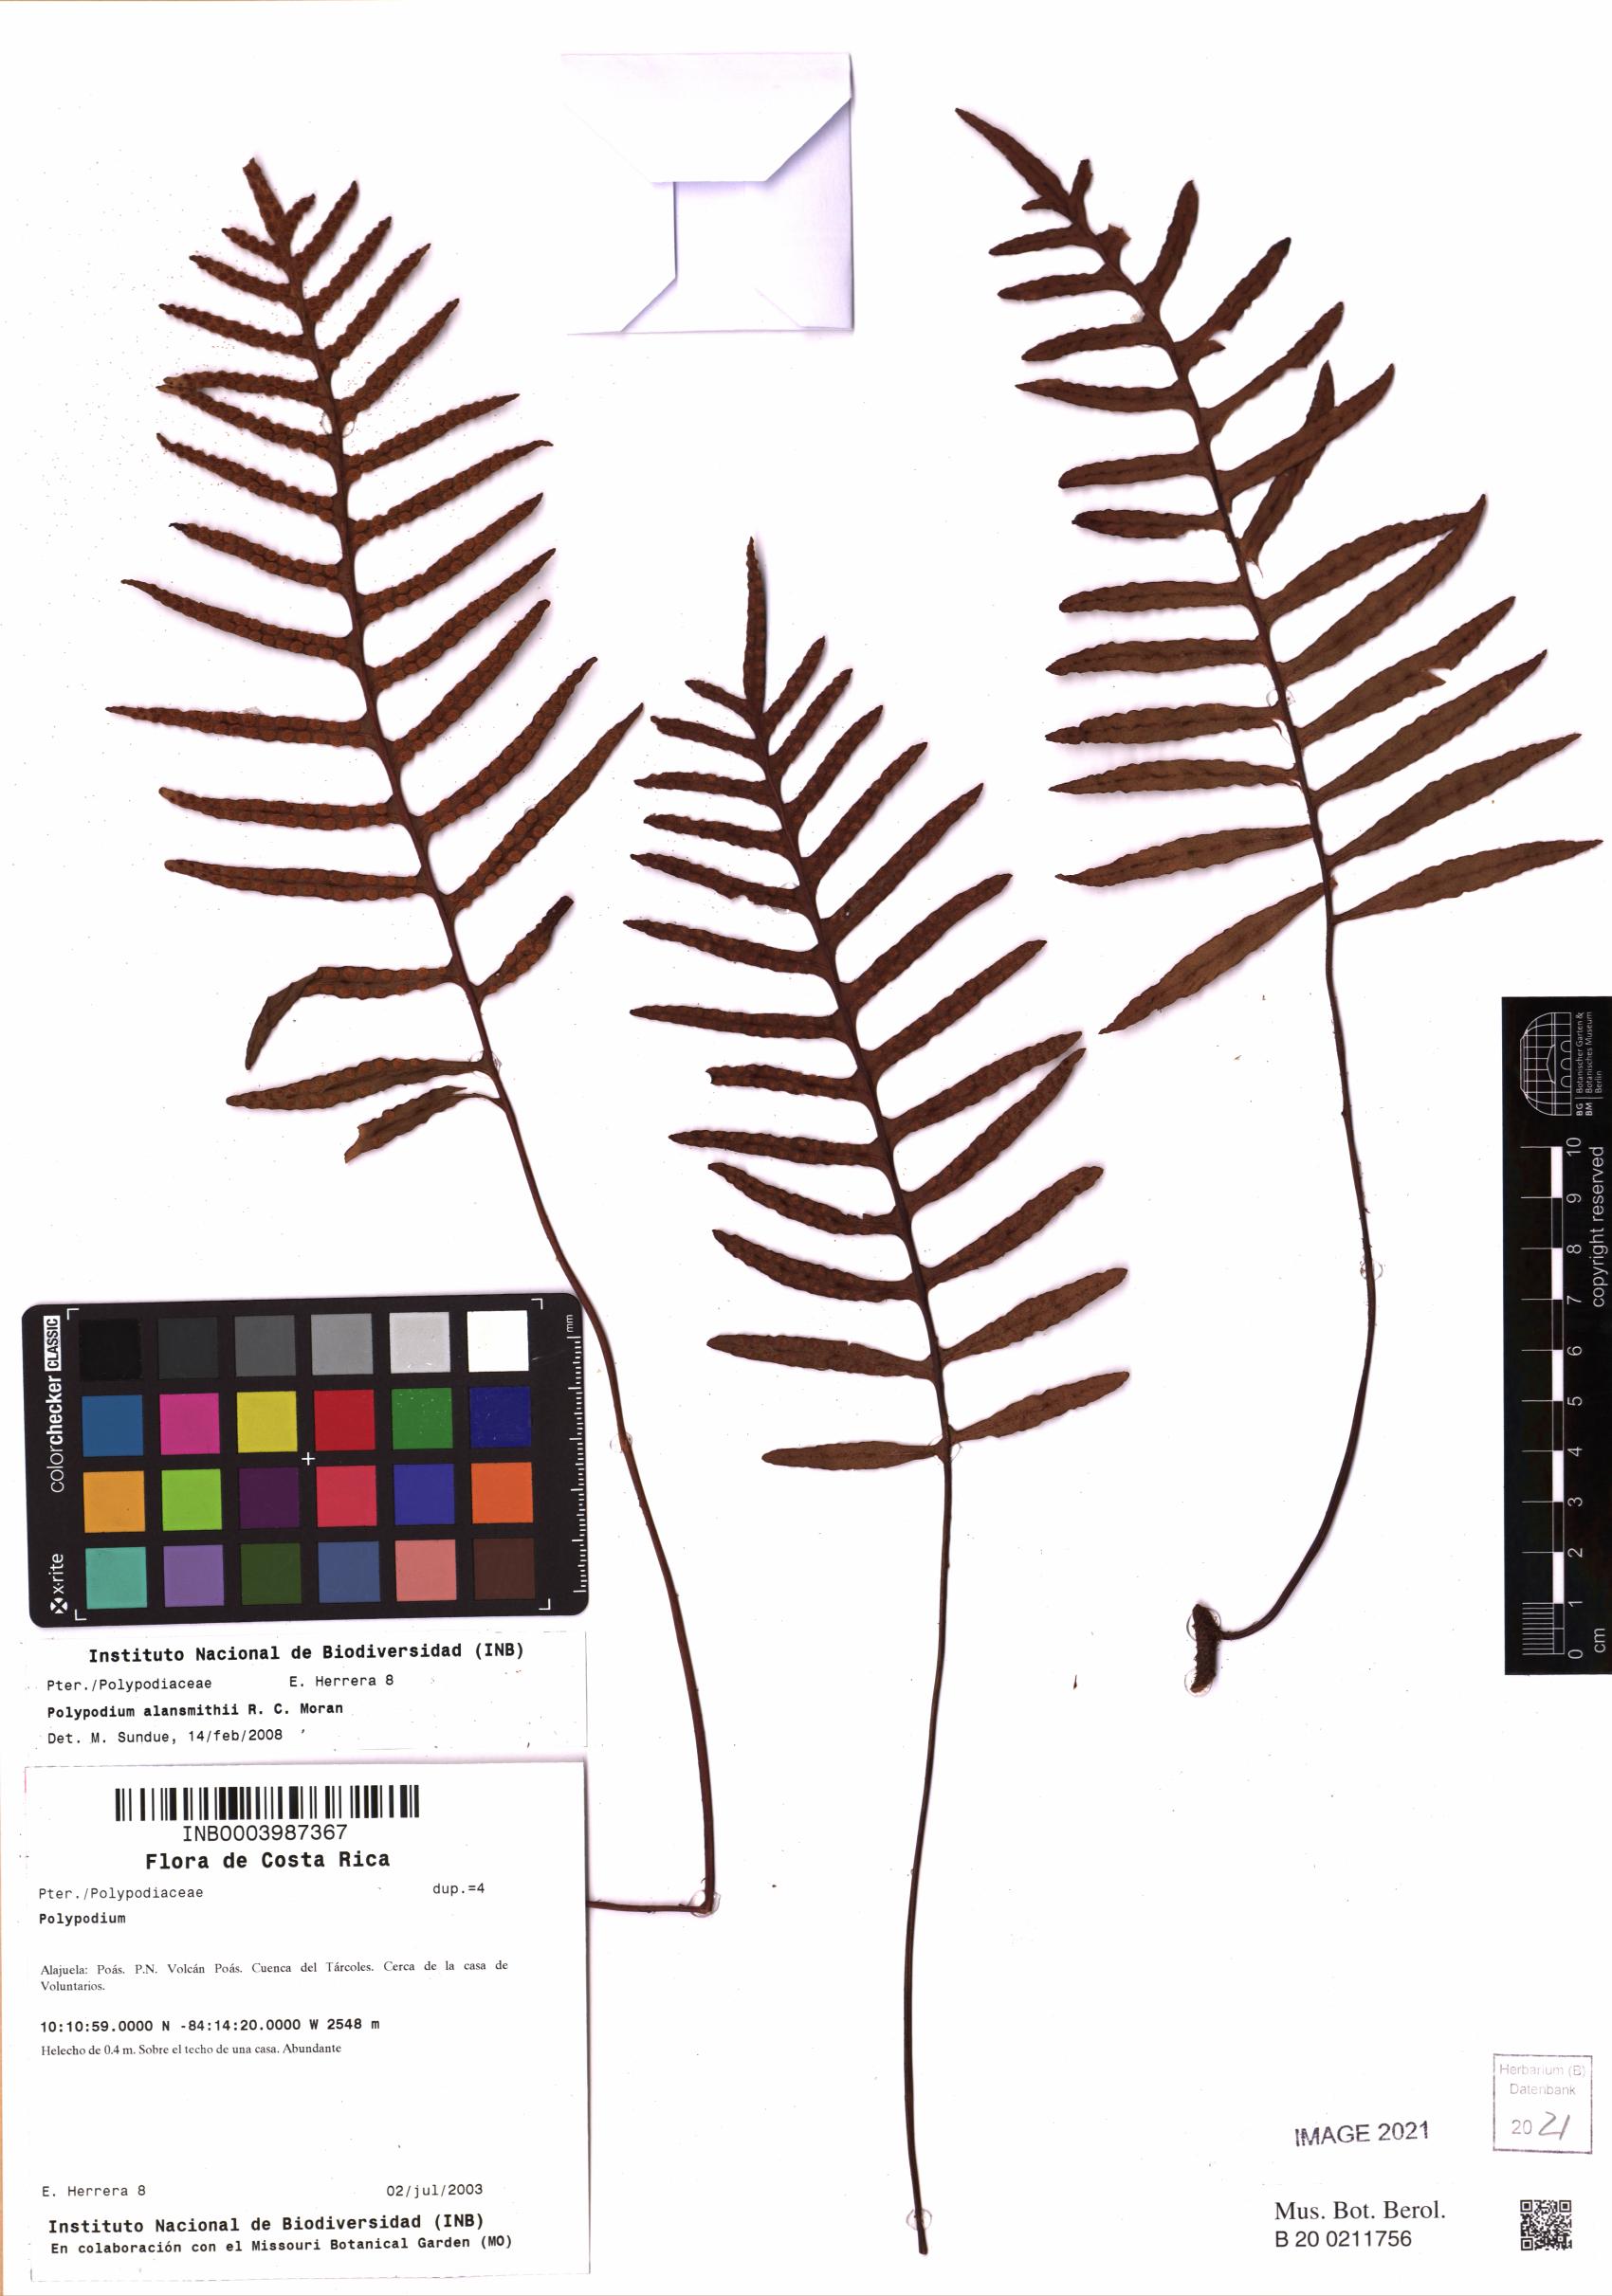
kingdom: Plantae
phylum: Tracheophyta
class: Polypodiopsida
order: Polypodiales
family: Polypodiaceae
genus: Pleopeltis
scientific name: Pleopeltis alansmithii
